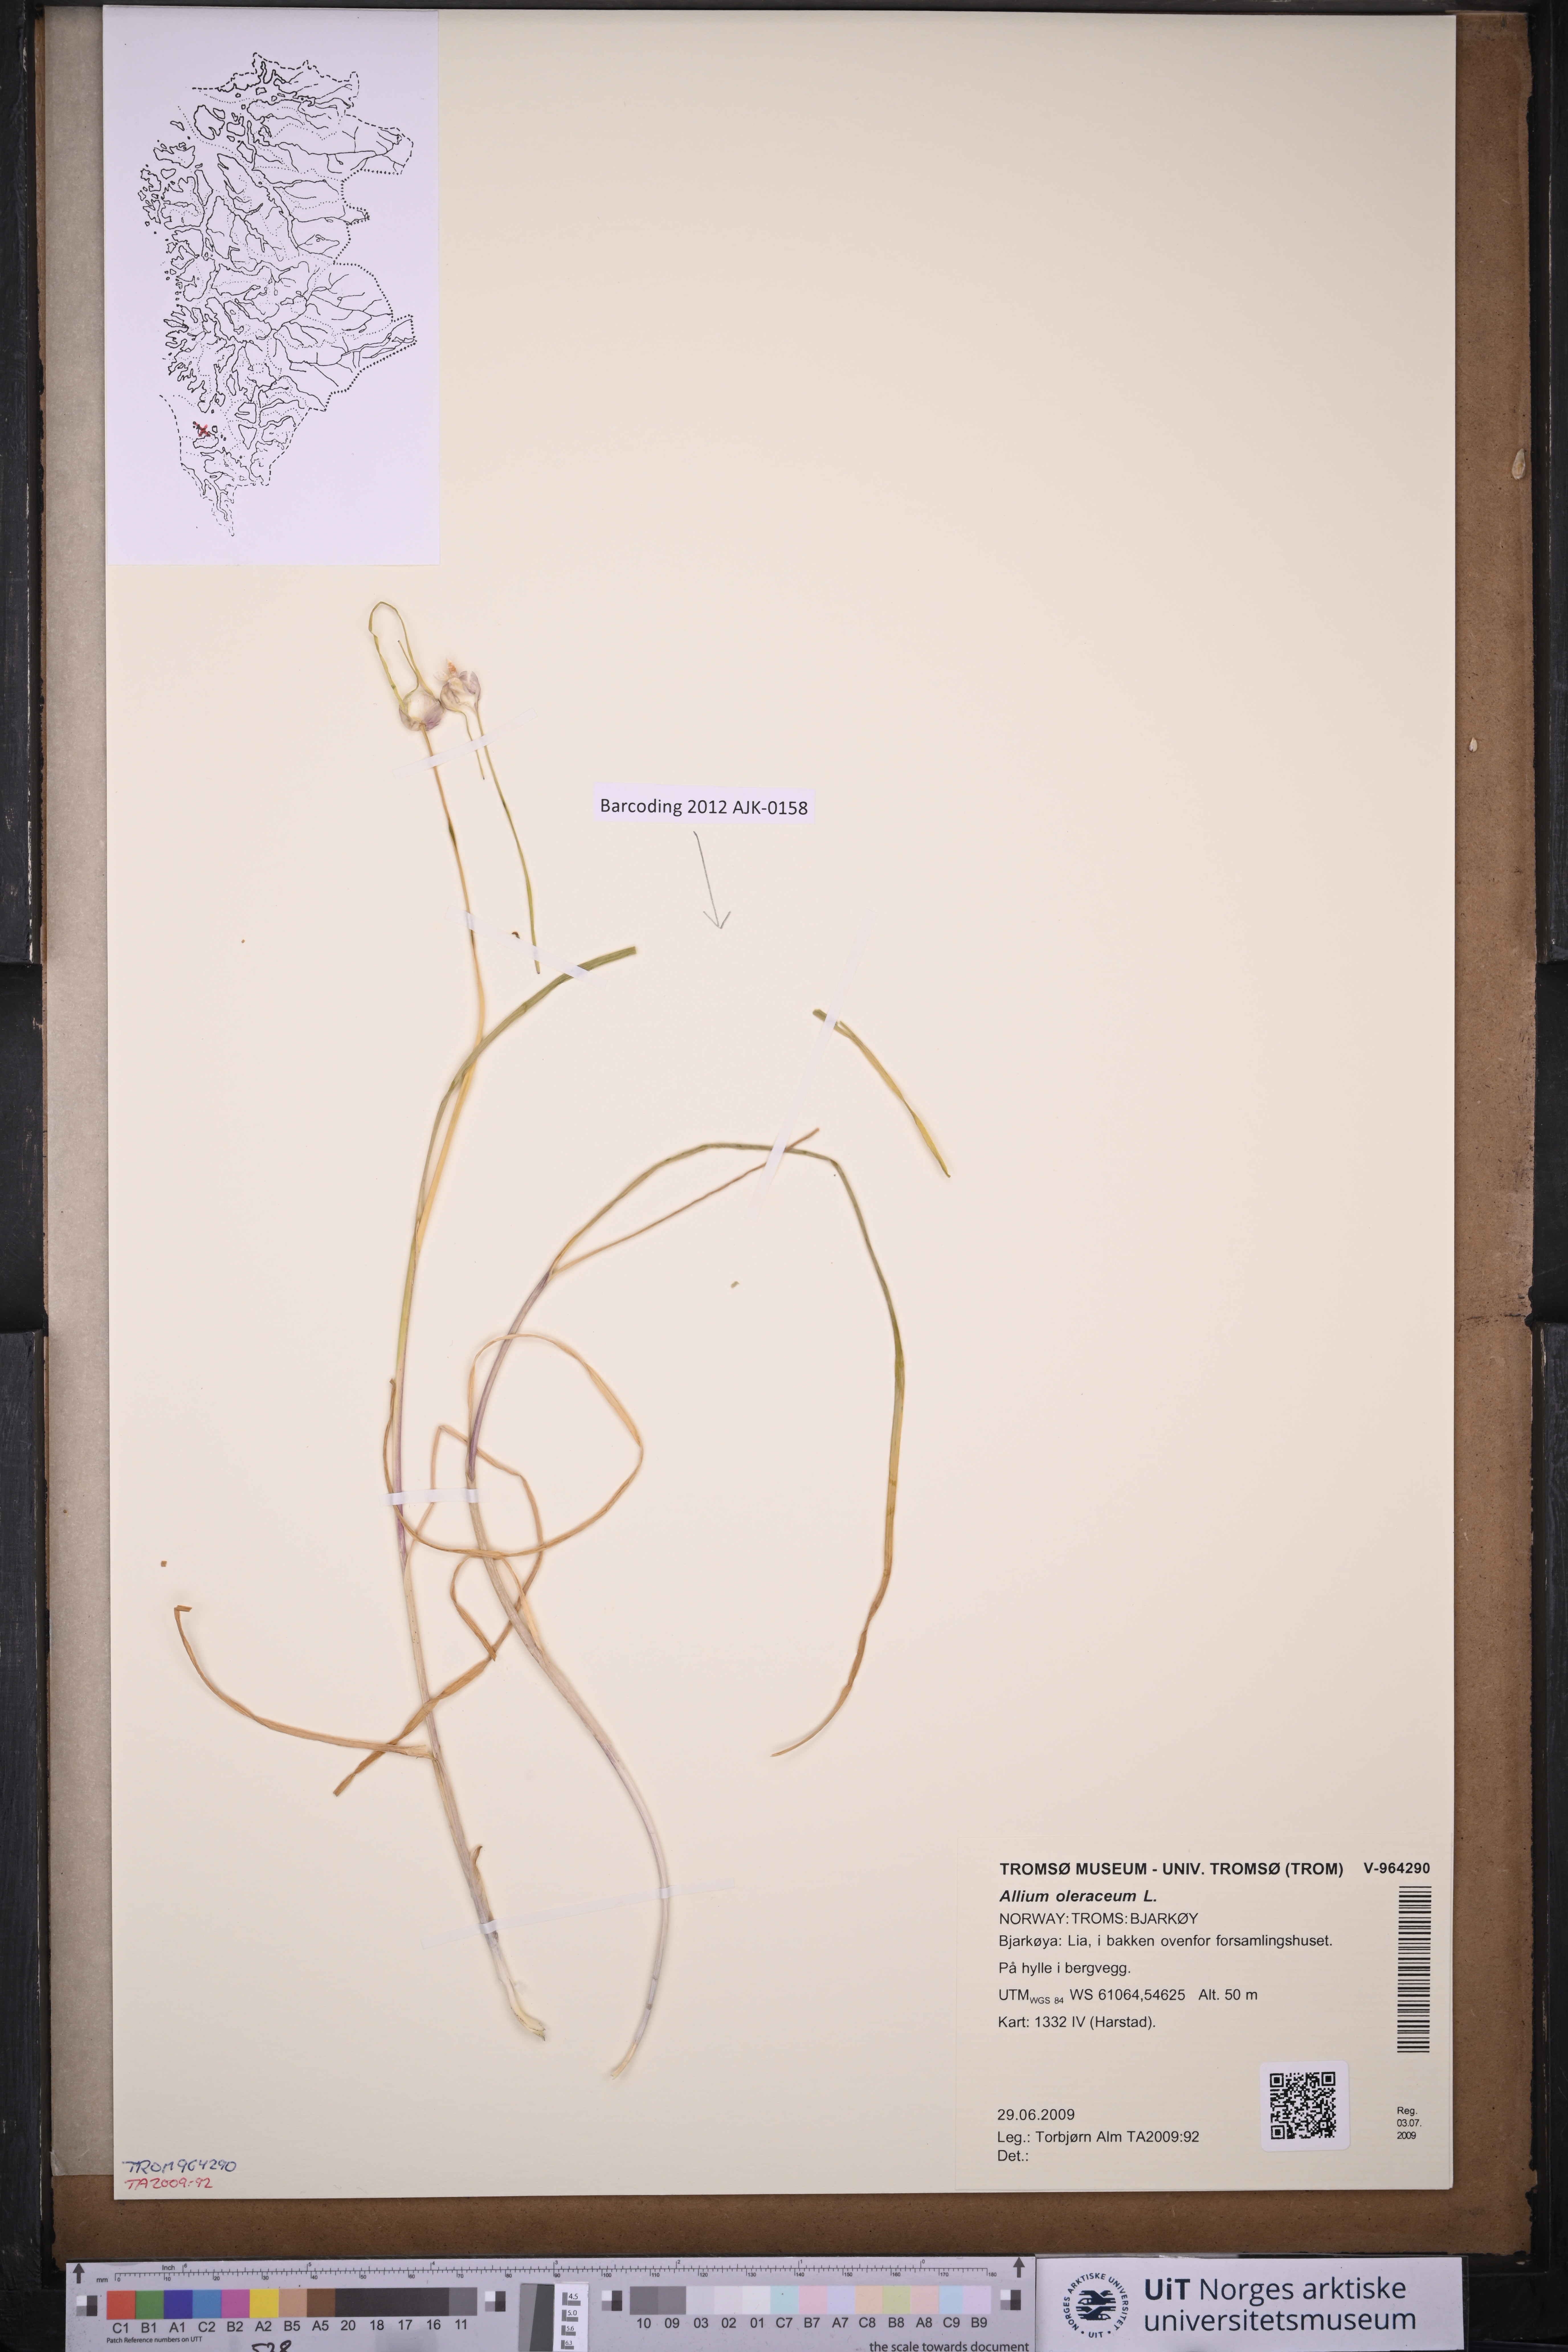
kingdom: Plantae
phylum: Tracheophyta
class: Liliopsida
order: Asparagales
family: Amaryllidaceae
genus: Allium
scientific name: Allium oleraceum
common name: Field garlic
